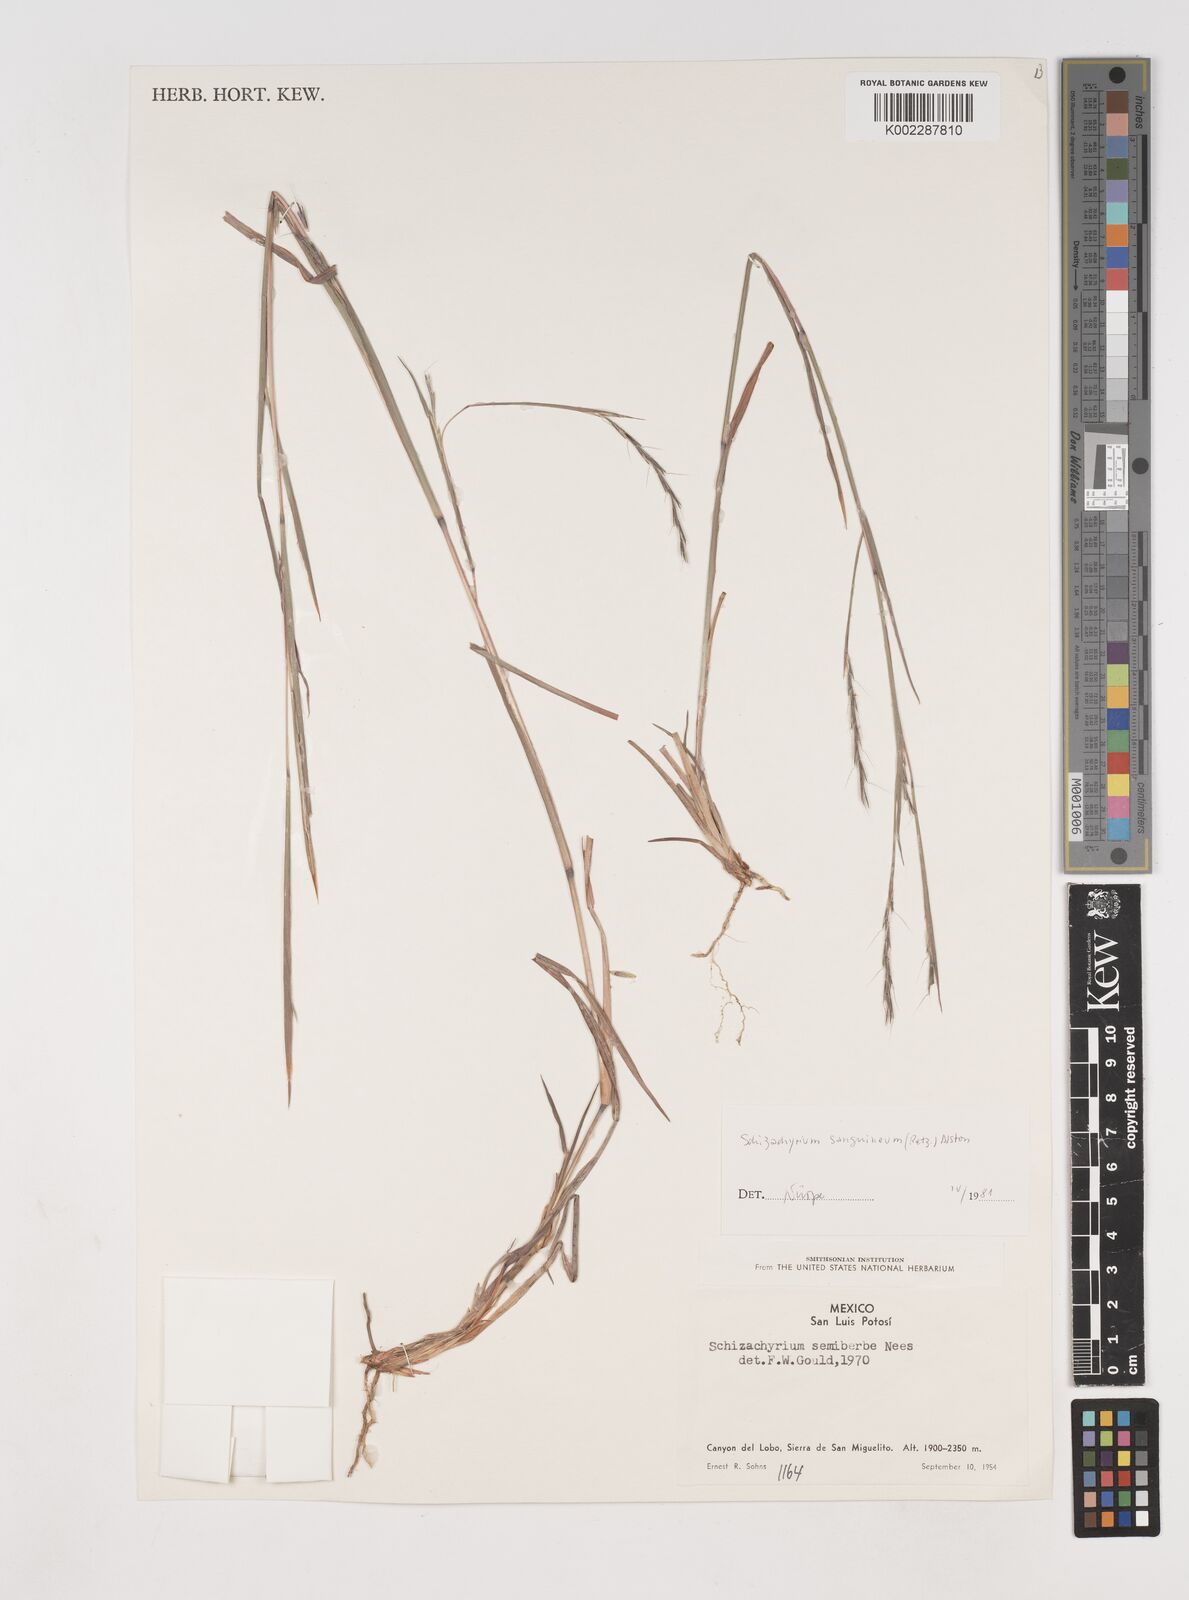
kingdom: Plantae
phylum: Tracheophyta
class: Liliopsida
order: Poales
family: Poaceae
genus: Schizachyrium
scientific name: Schizachyrium sanguineum
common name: Crimson bluestem
